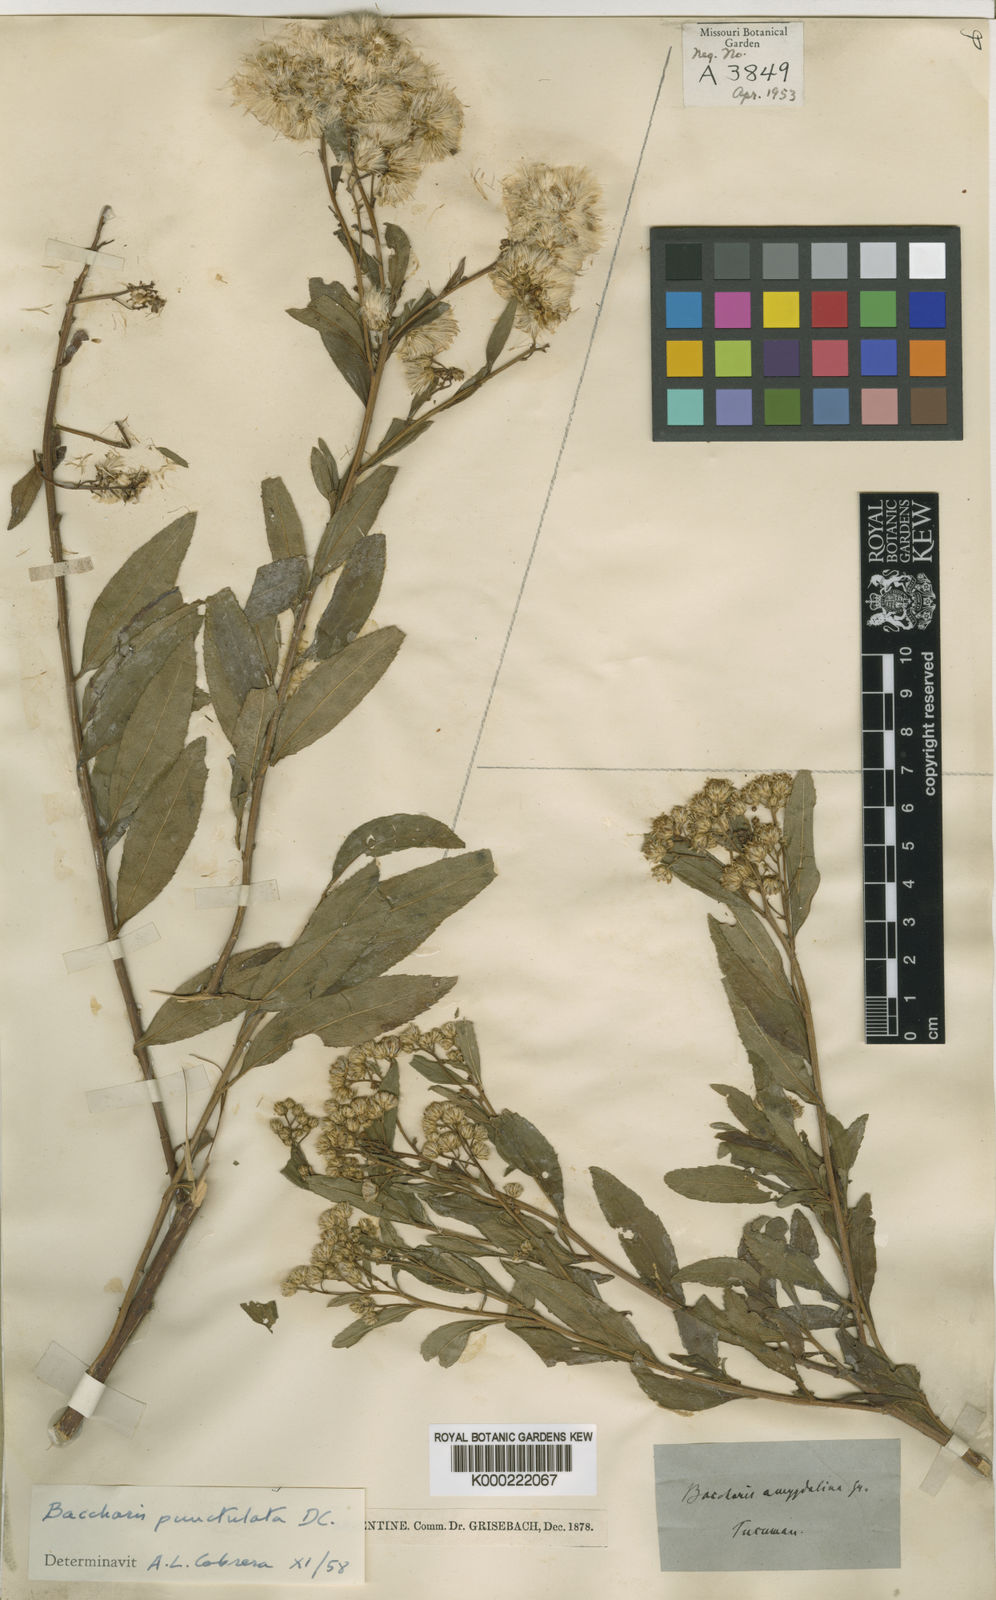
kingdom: Plantae
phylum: Tracheophyta
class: Magnoliopsida
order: Asterales
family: Asteraceae
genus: Baccharis
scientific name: Baccharis punctulata
